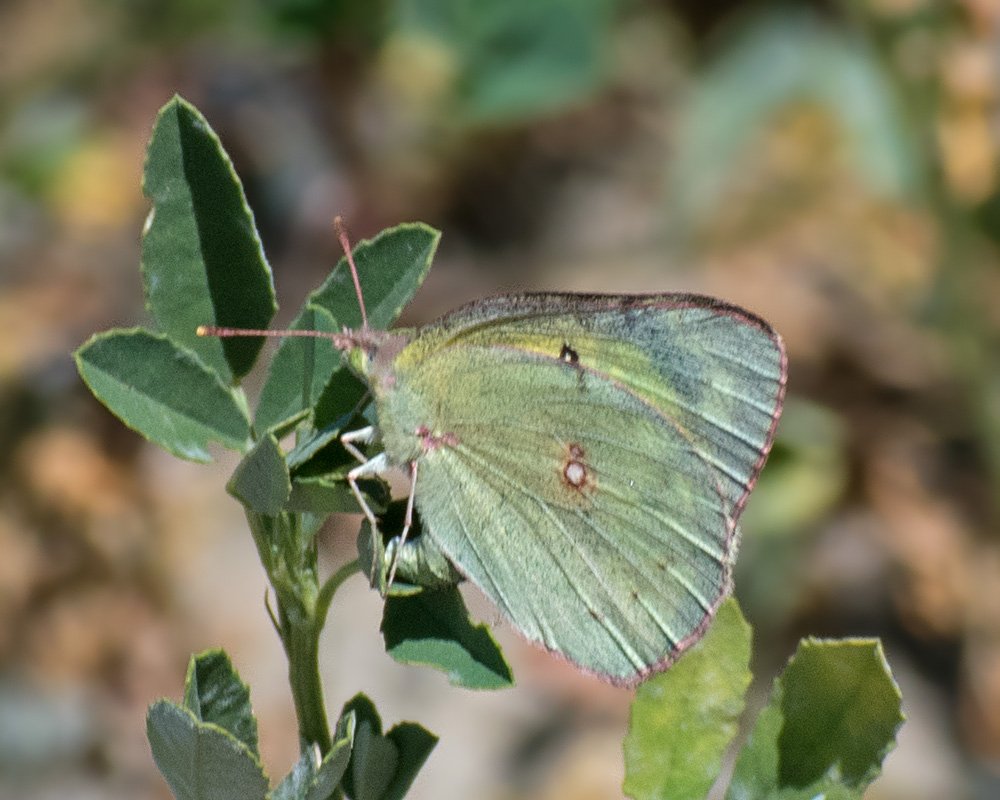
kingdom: Animalia
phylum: Arthropoda
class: Insecta
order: Lepidoptera
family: Pieridae
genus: Colias
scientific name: Colias eurytheme
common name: Orange Sulphur
